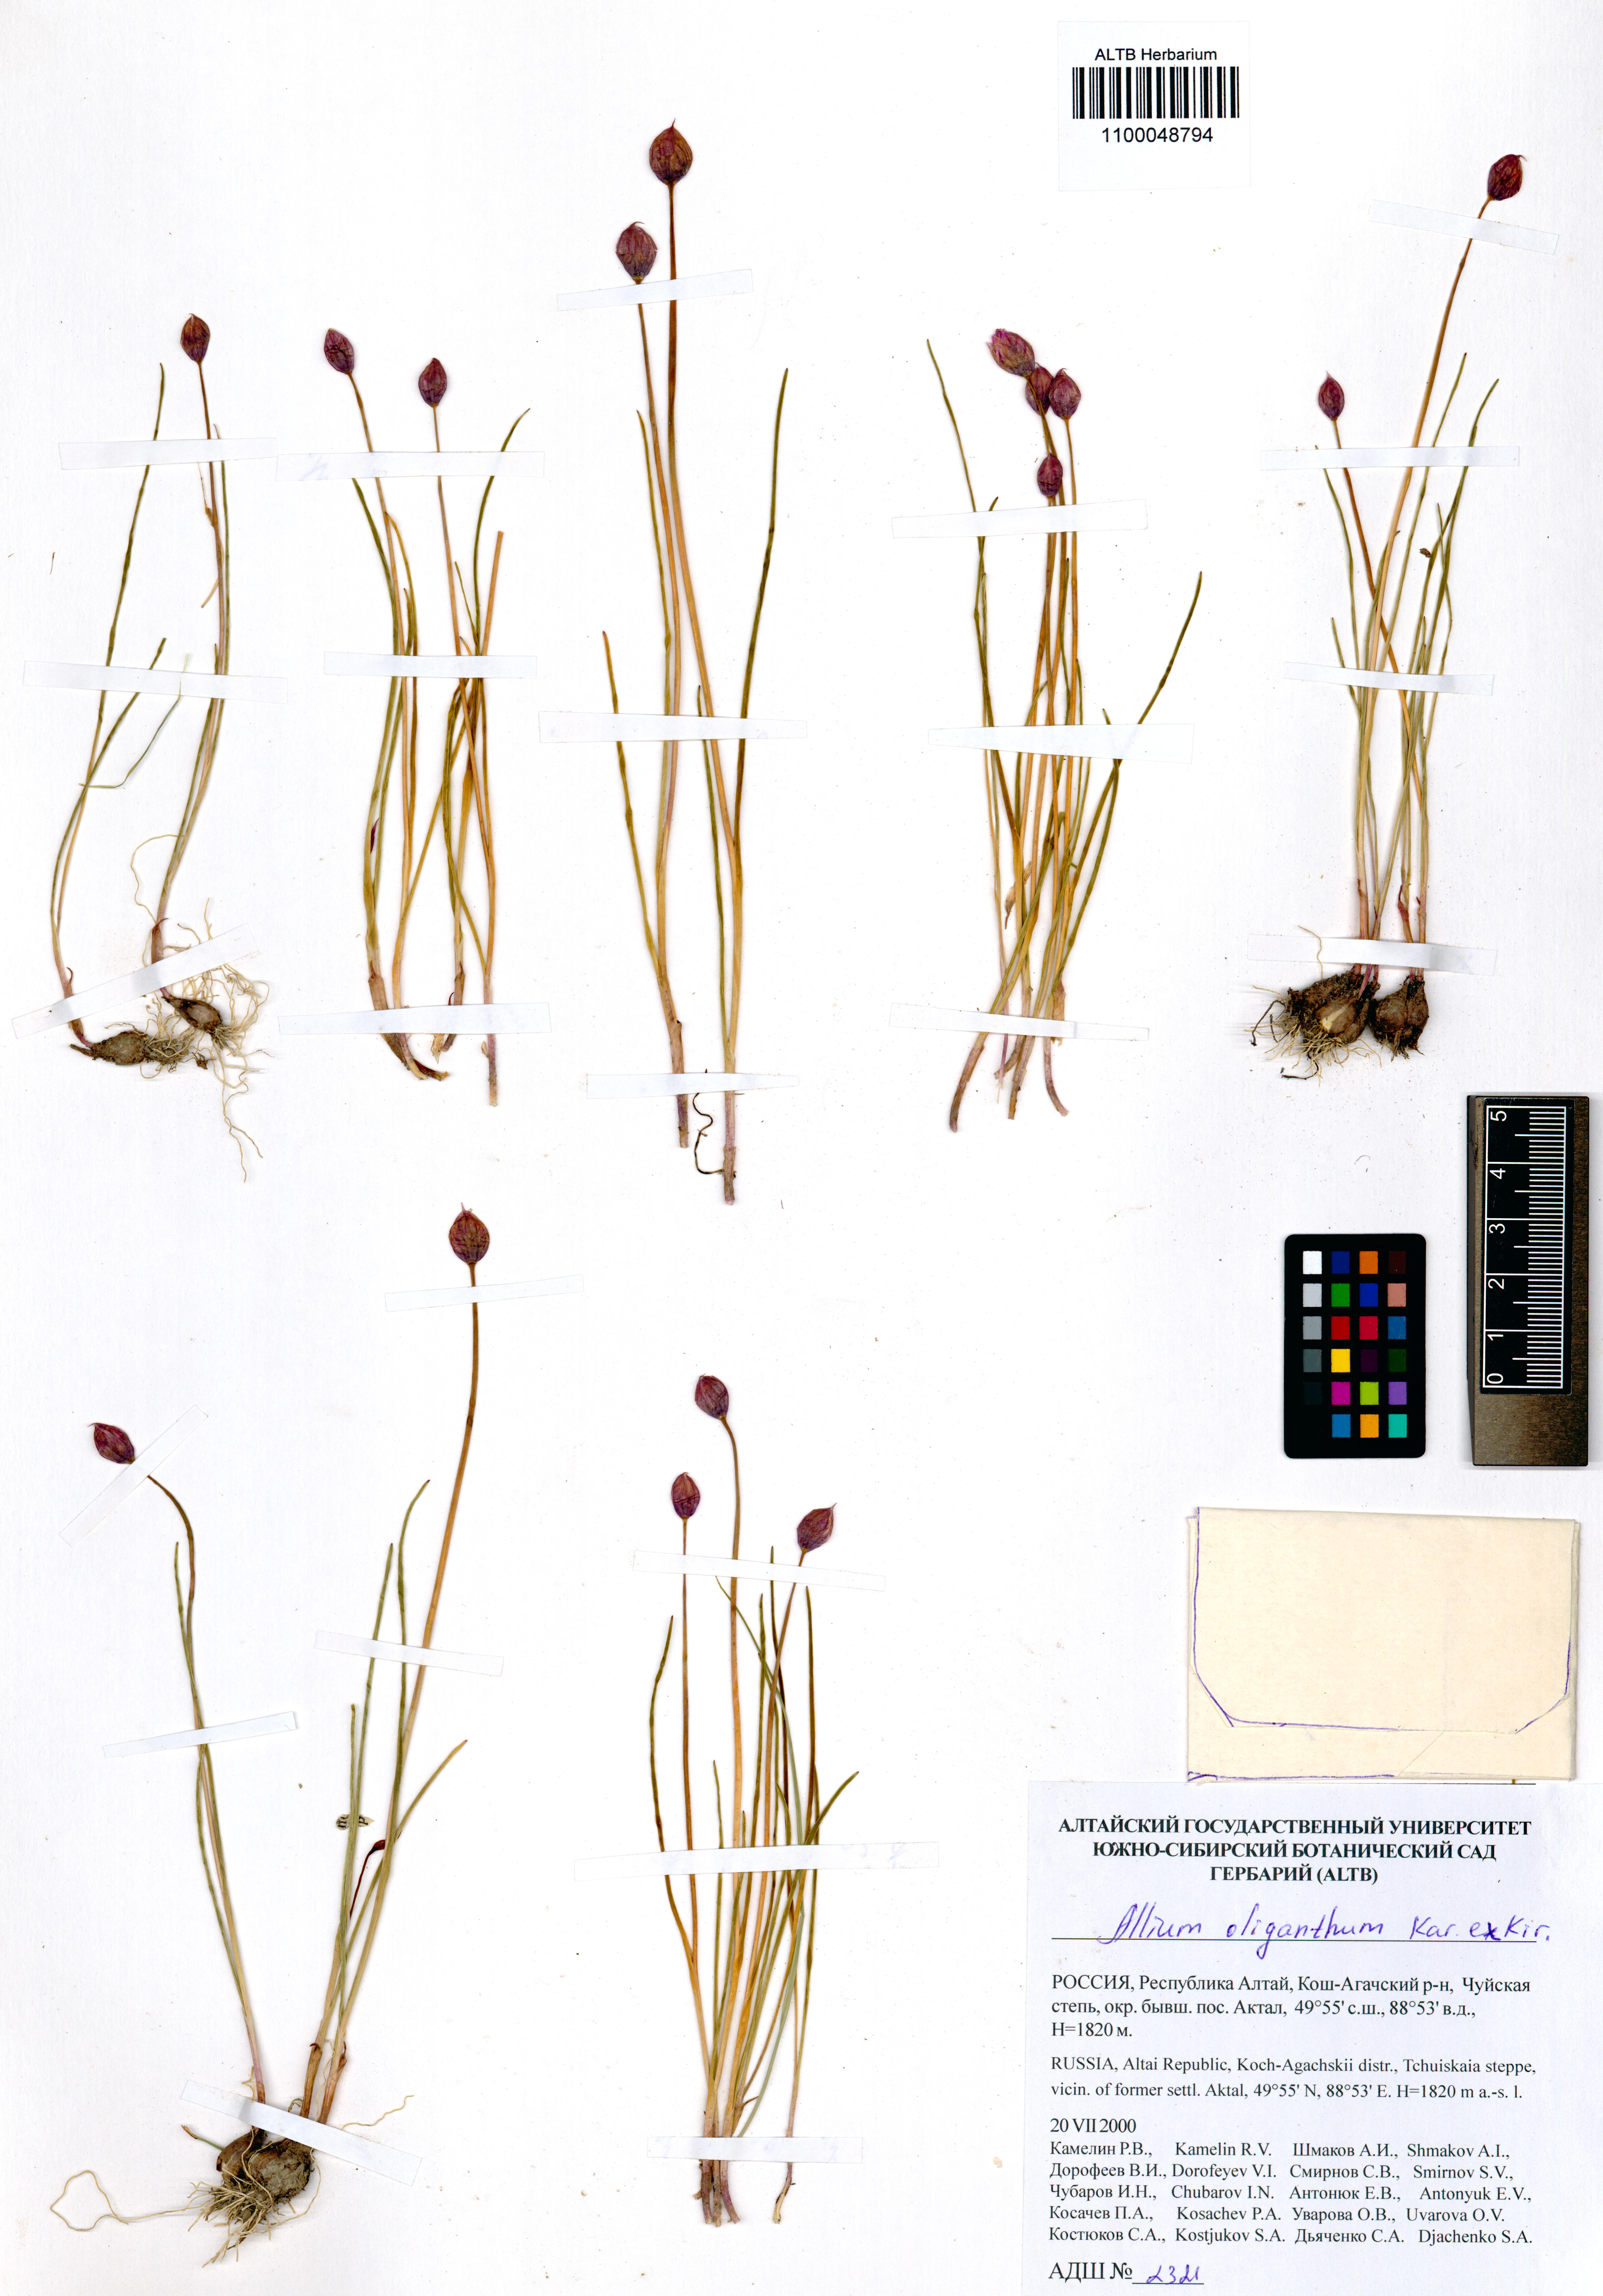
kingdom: Plantae
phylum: Tracheophyta
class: Liliopsida
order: Asparagales
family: Amaryllidaceae
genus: Allium
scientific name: Allium oliganthum
